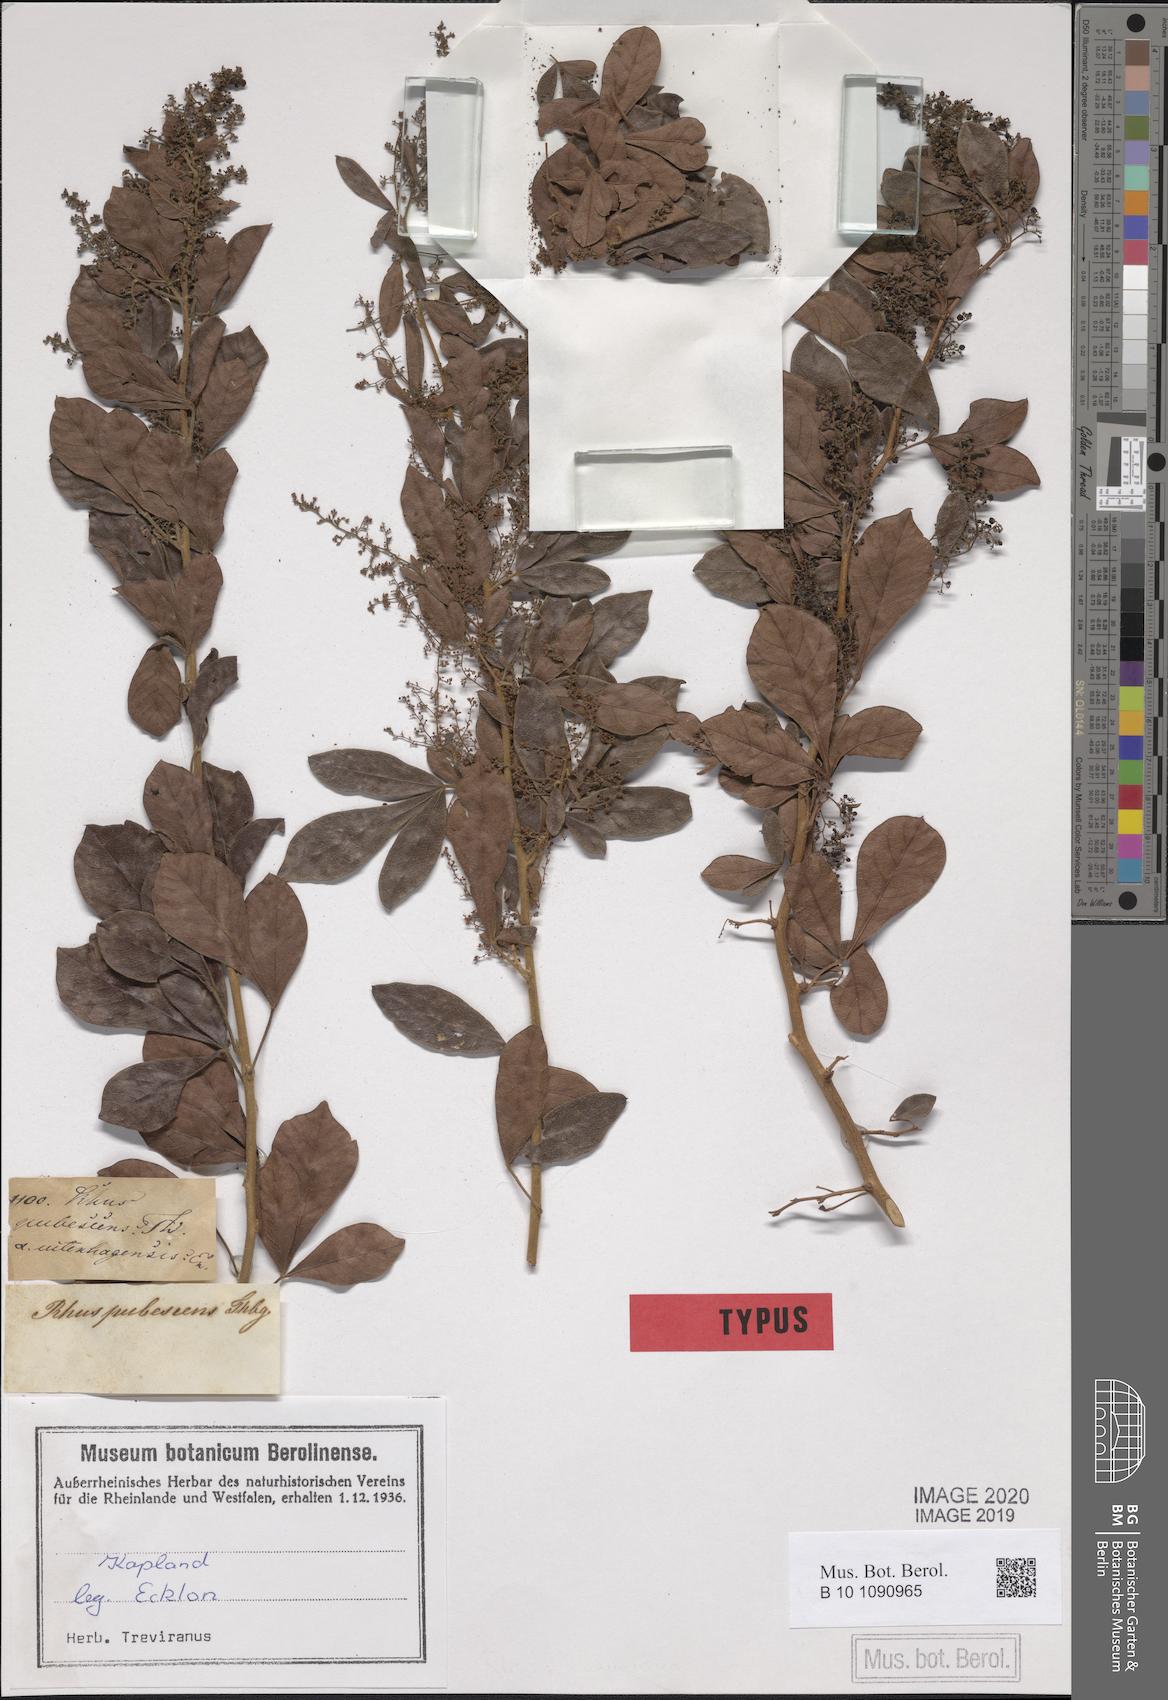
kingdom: Plantae
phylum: Tracheophyta
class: Magnoliopsida
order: Sapindales
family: Anacardiaceae
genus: Searsia
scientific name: Searsia rehmanniana
